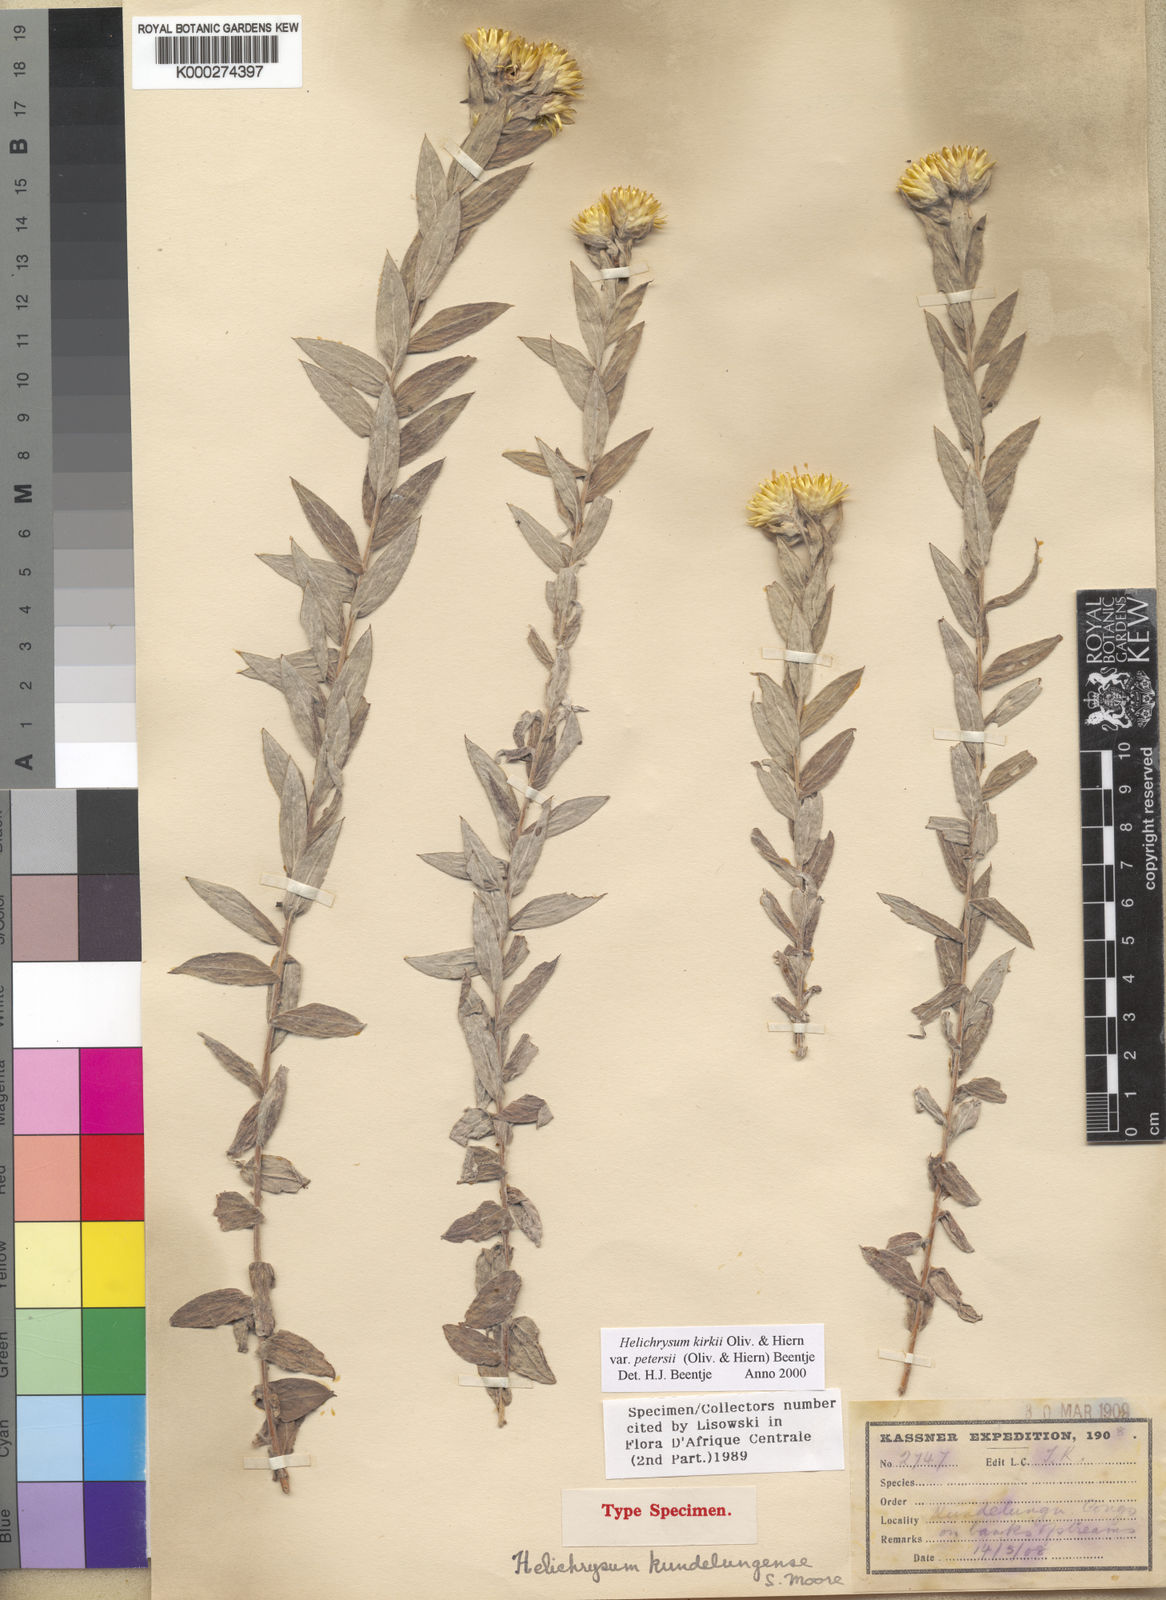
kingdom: Plantae
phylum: Tracheophyta
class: Magnoliopsida
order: Asterales
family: Asteraceae
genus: Helichrysum
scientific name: Helichrysum kirkii
